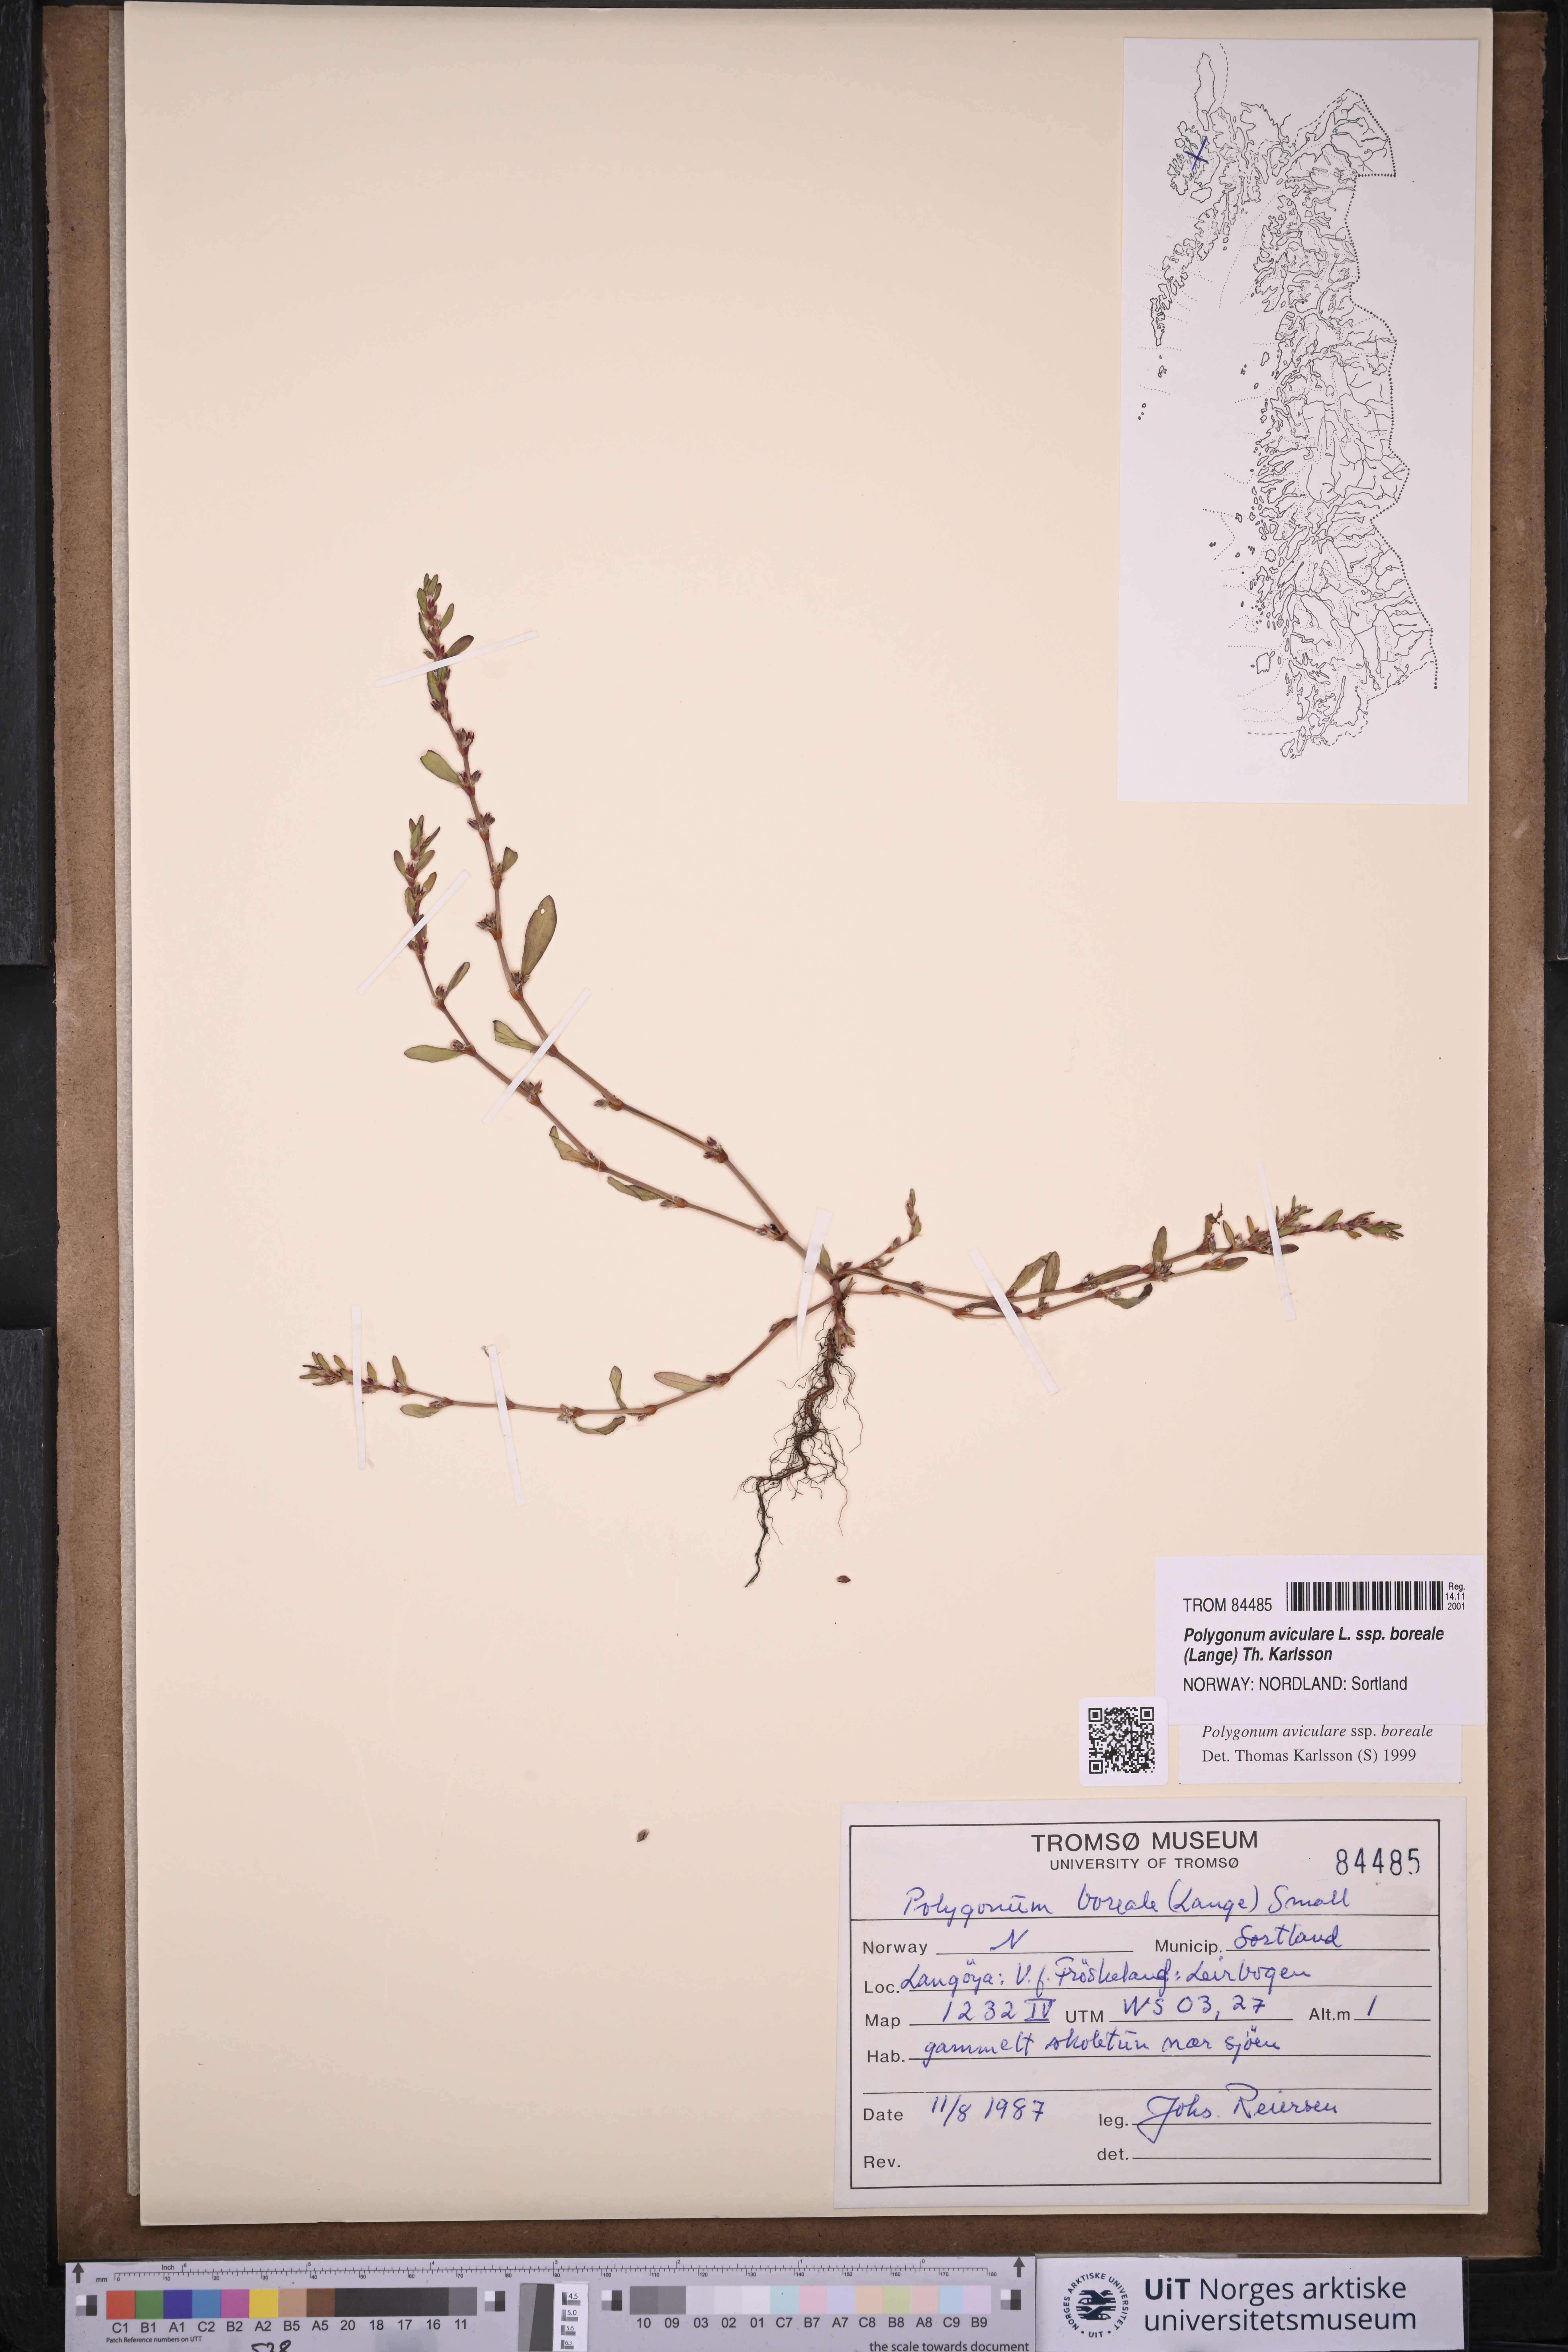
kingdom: Plantae
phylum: Tracheophyta
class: Magnoliopsida
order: Caryophyllales
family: Polygonaceae
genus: Polygonum
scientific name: Polygonum boreale
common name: Northern knotgrass
